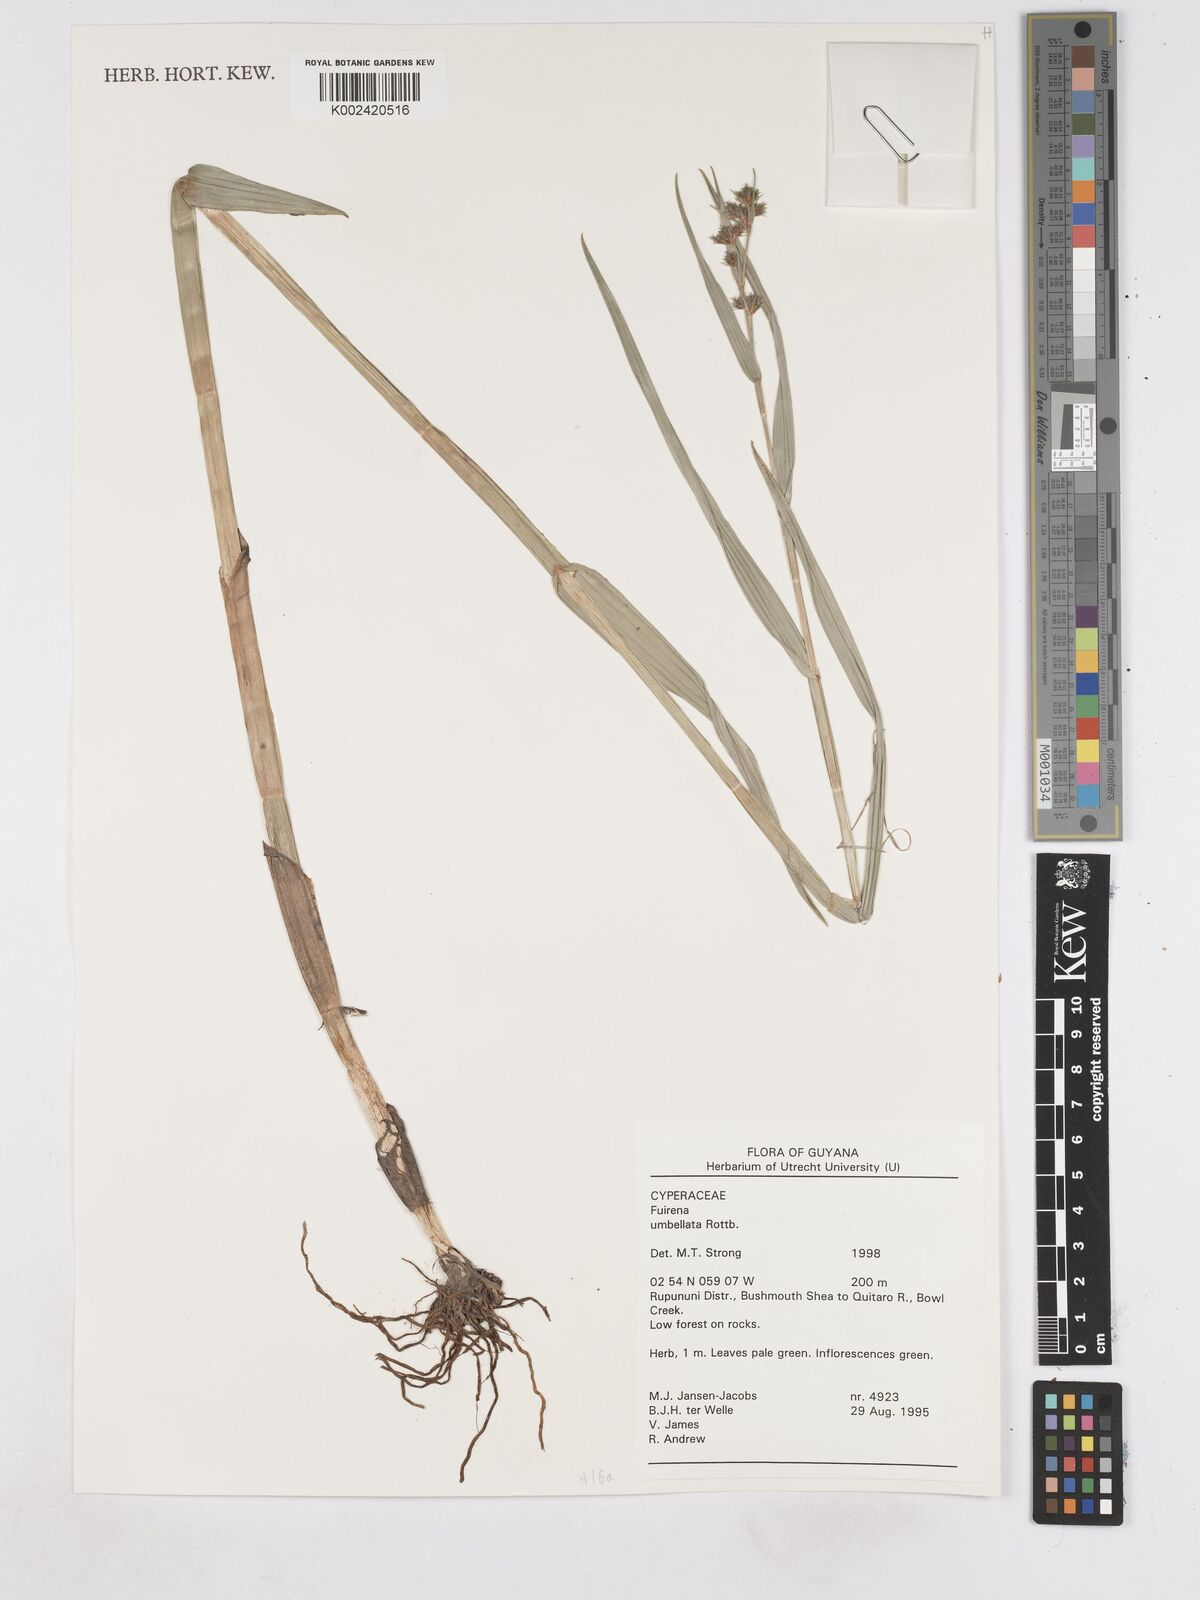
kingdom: Plantae
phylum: Tracheophyta
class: Liliopsida
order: Poales
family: Cyperaceae
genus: Fuirena
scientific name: Fuirena umbellata
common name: Yefen
